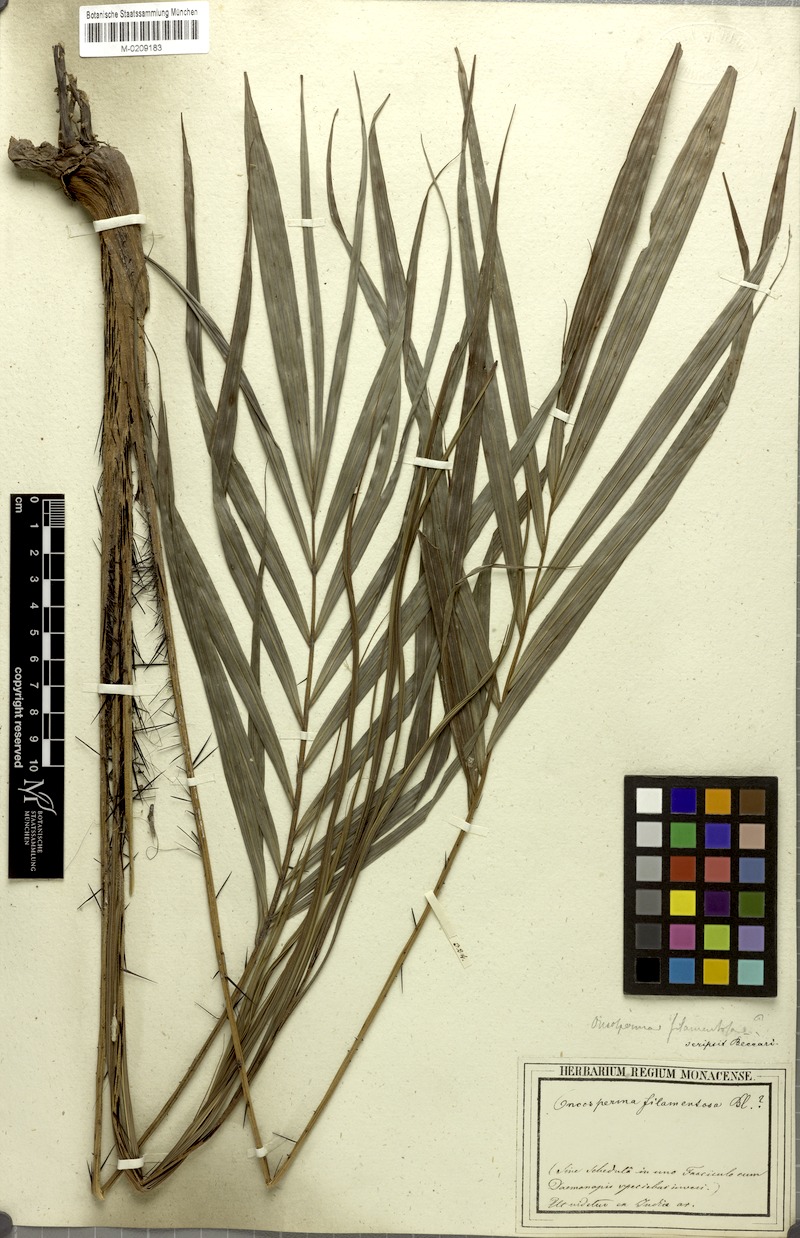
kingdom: Plantae
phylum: Tracheophyta
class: Liliopsida
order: Arecales
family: Arecaceae
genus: Oncosperma
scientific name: Oncosperma tigillarium
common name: Nibong
